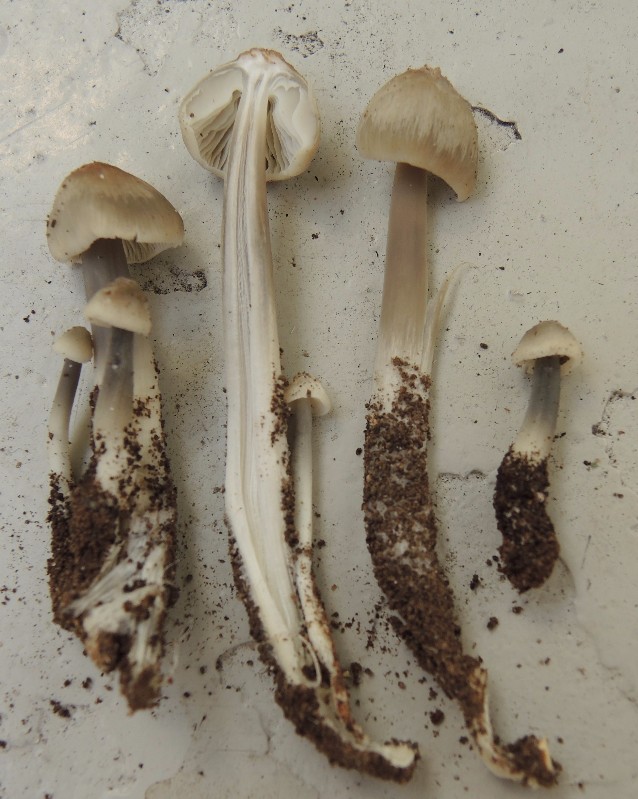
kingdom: Fungi
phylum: Basidiomycota
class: Agaricomycetes
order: Agaricales
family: Mycenaceae
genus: Mycena
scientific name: Mycena arcangeliana
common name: oliven-huesvamp
